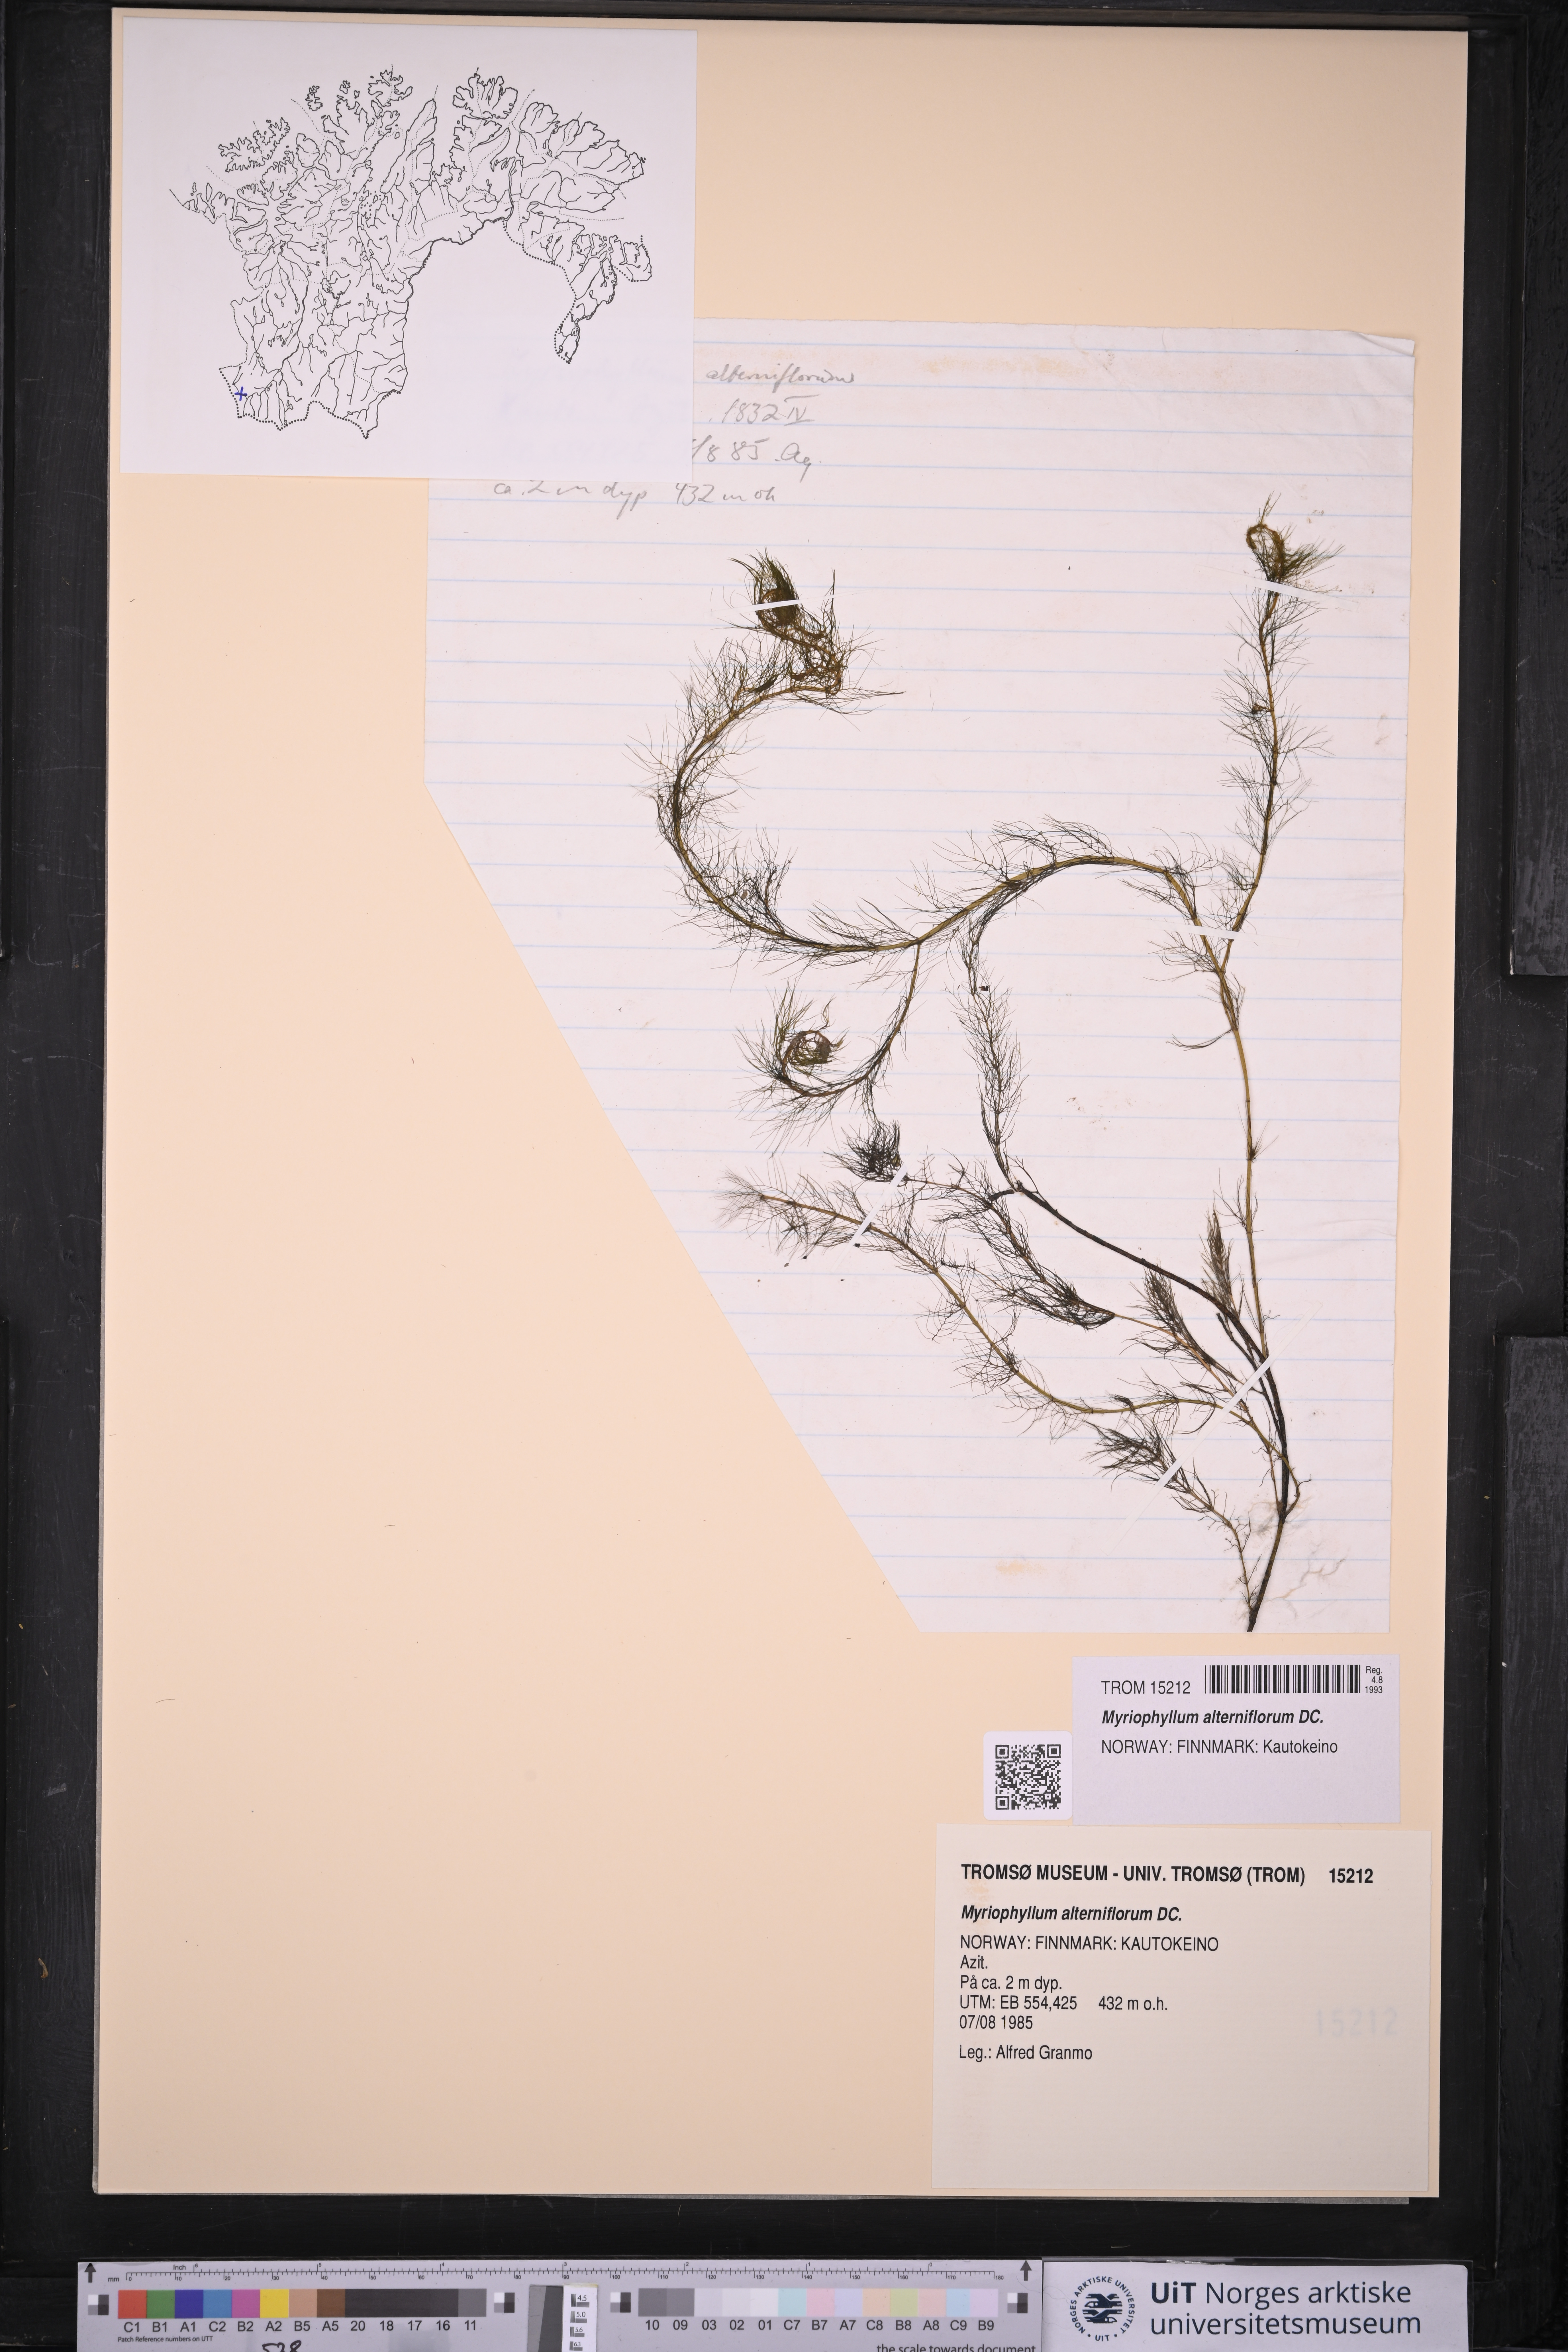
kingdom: Plantae
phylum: Tracheophyta
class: Magnoliopsida
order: Saxifragales
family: Haloragaceae
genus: Myriophyllum
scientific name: Myriophyllum alterniflorum
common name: Alternate water-milfoil
